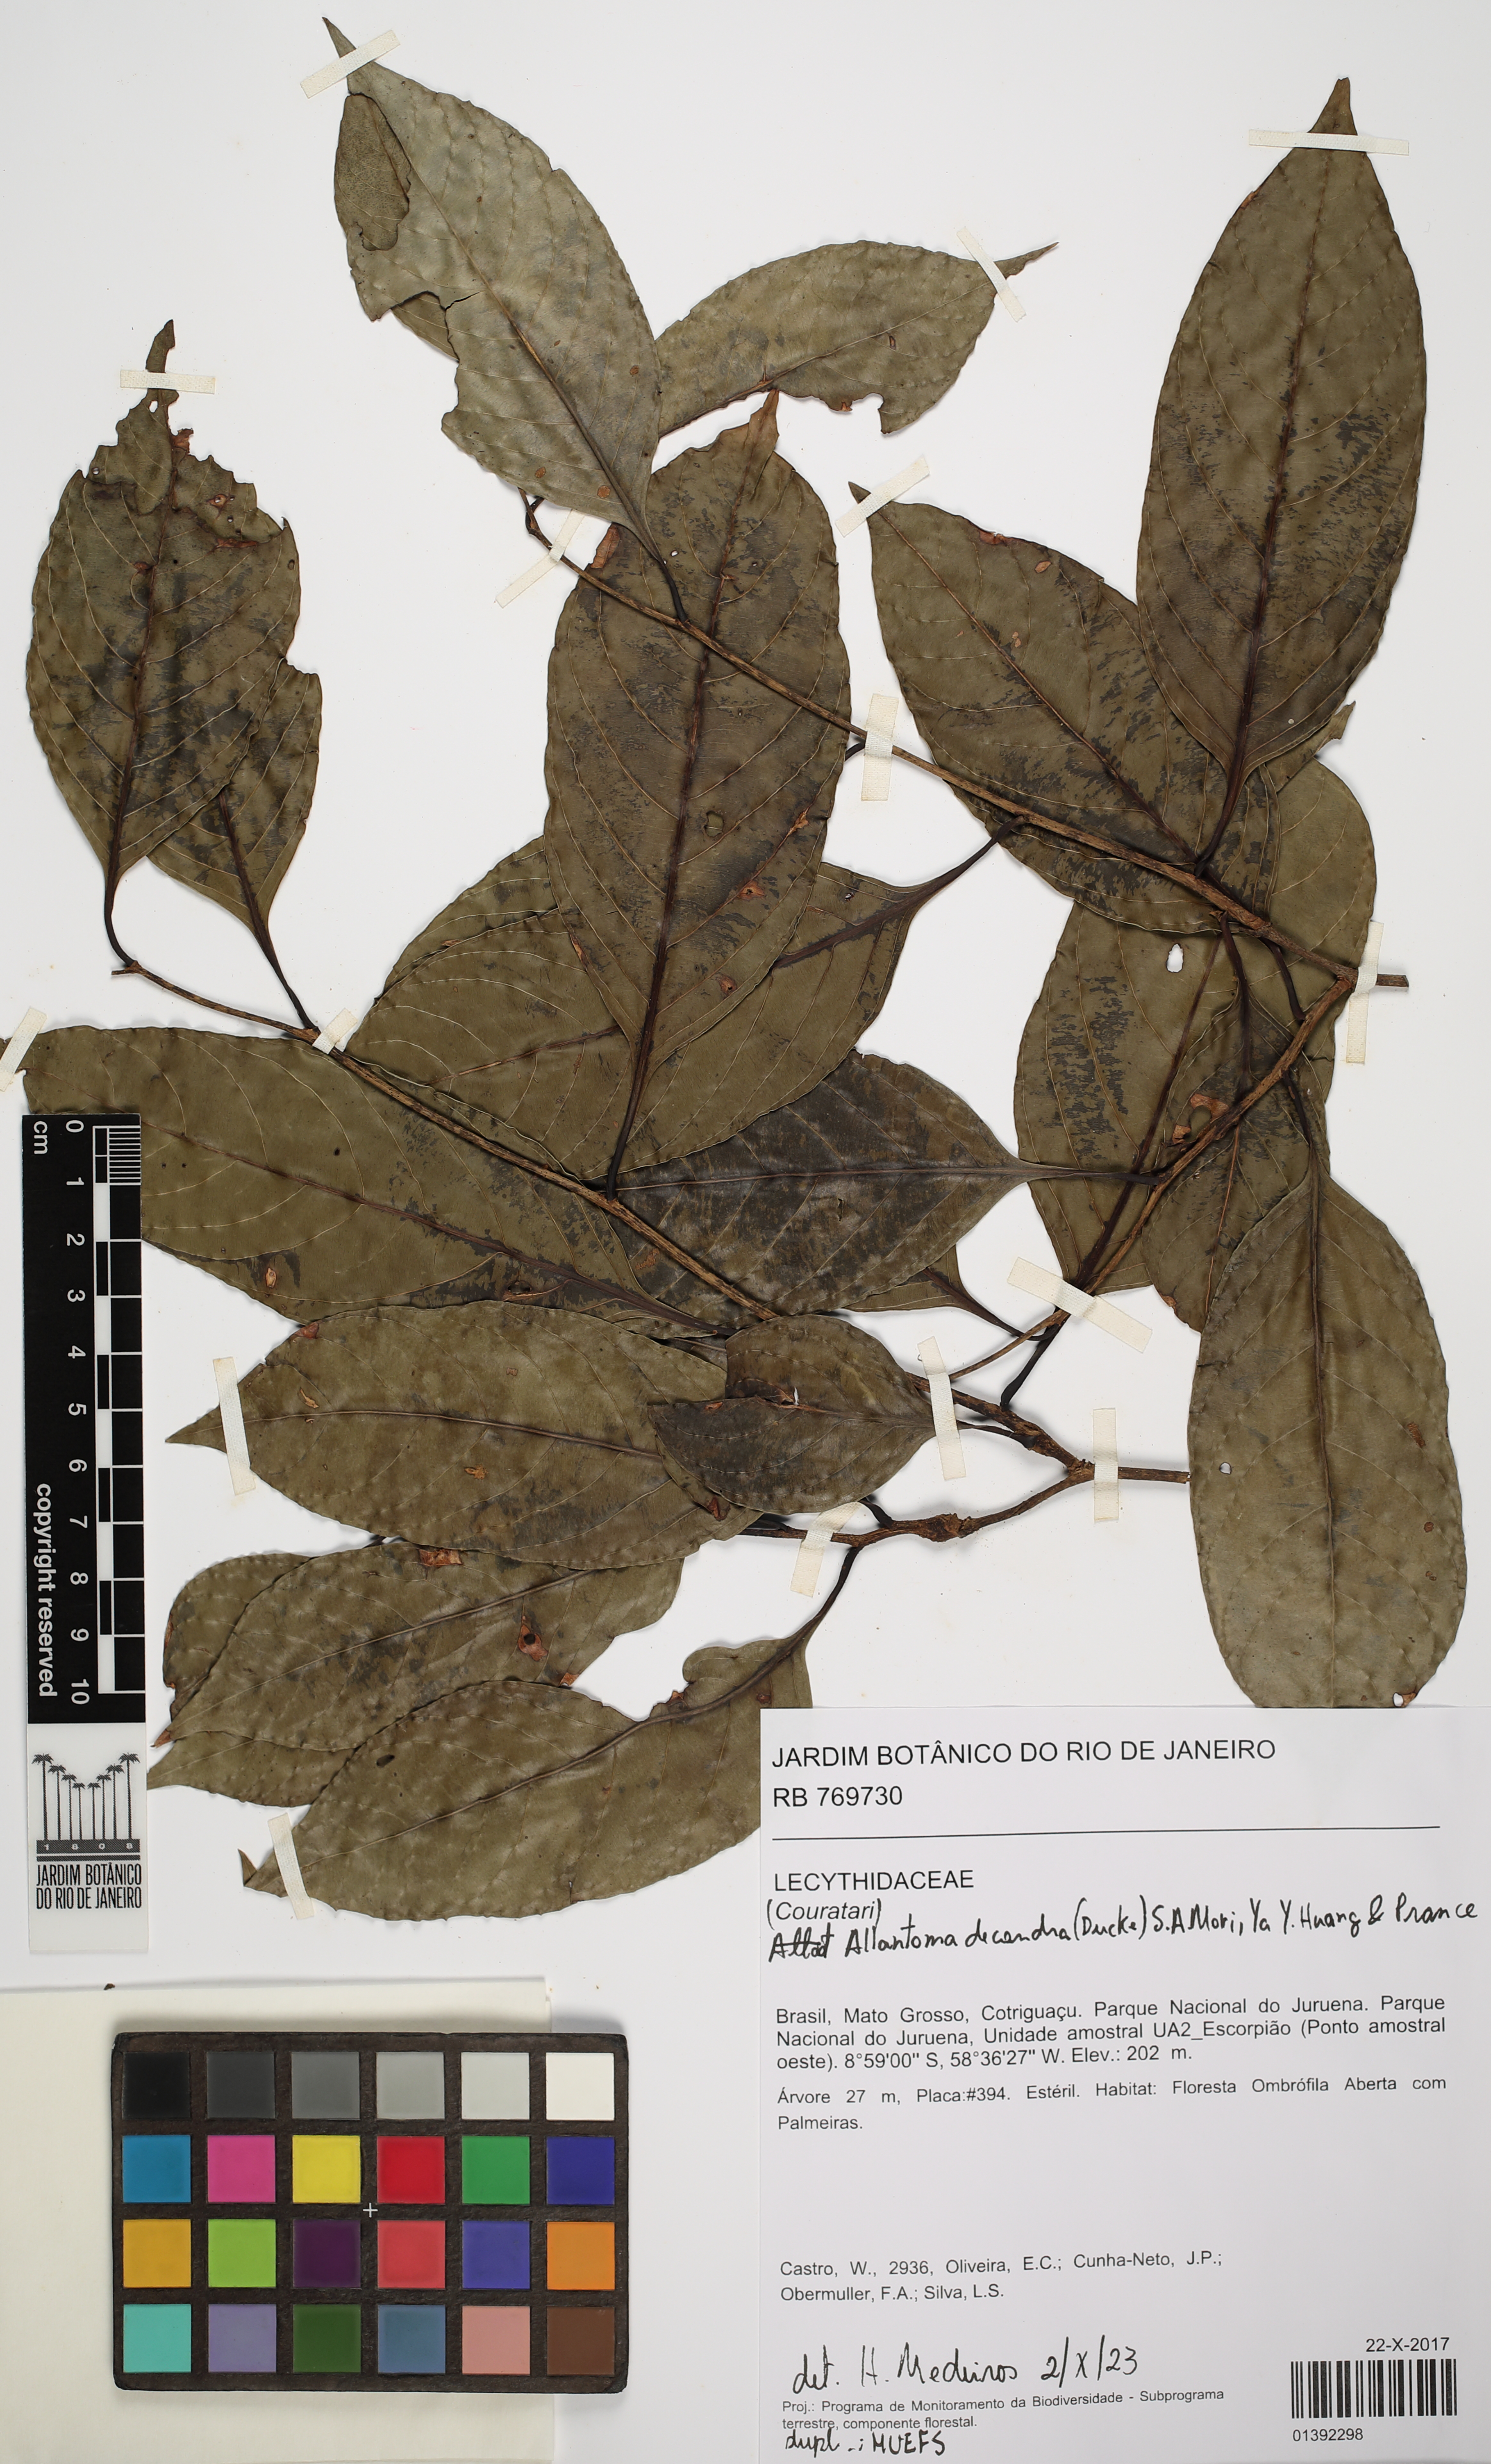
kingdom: Plantae
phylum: Tracheophyta
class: Magnoliopsida
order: Ericales
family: Lecythidaceae
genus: Allantoma
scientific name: Allantoma decandra
